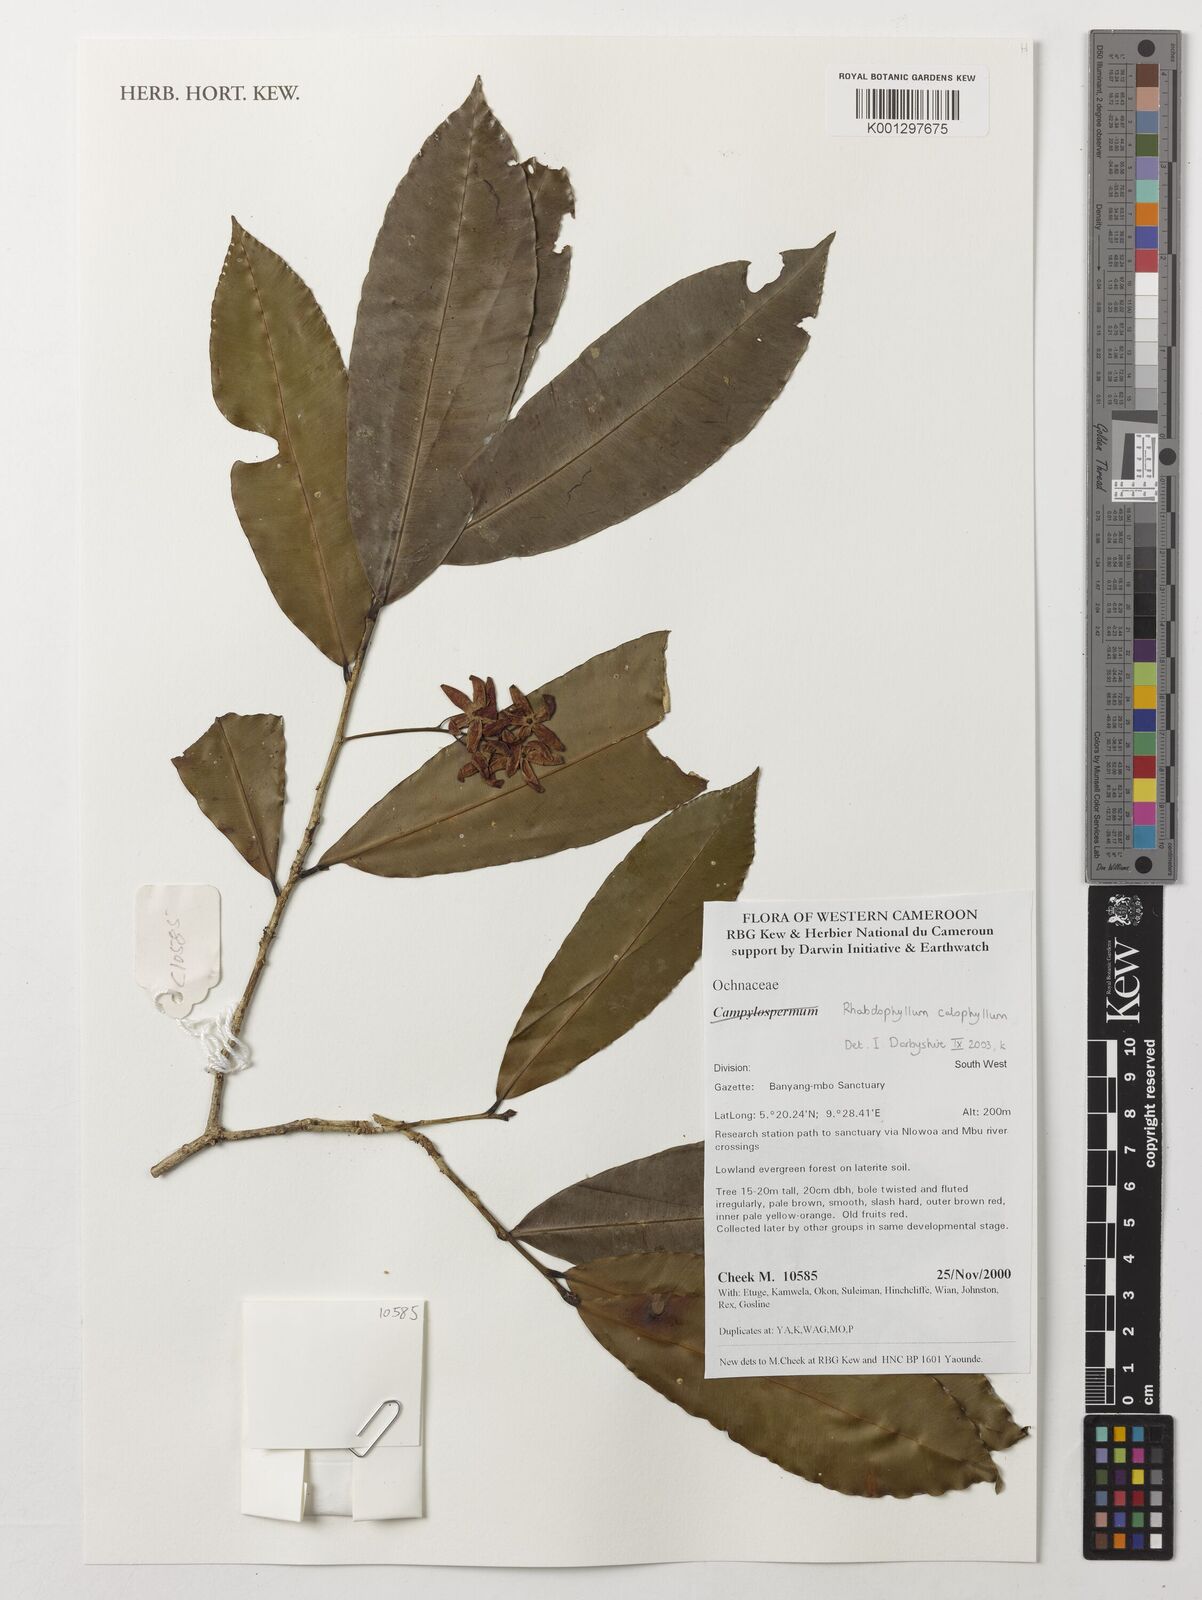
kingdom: Plantae
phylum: Tracheophyta
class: Magnoliopsida
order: Malpighiales
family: Ochnaceae
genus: Rhabdophyllum
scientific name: Rhabdophyllum calophyllum
